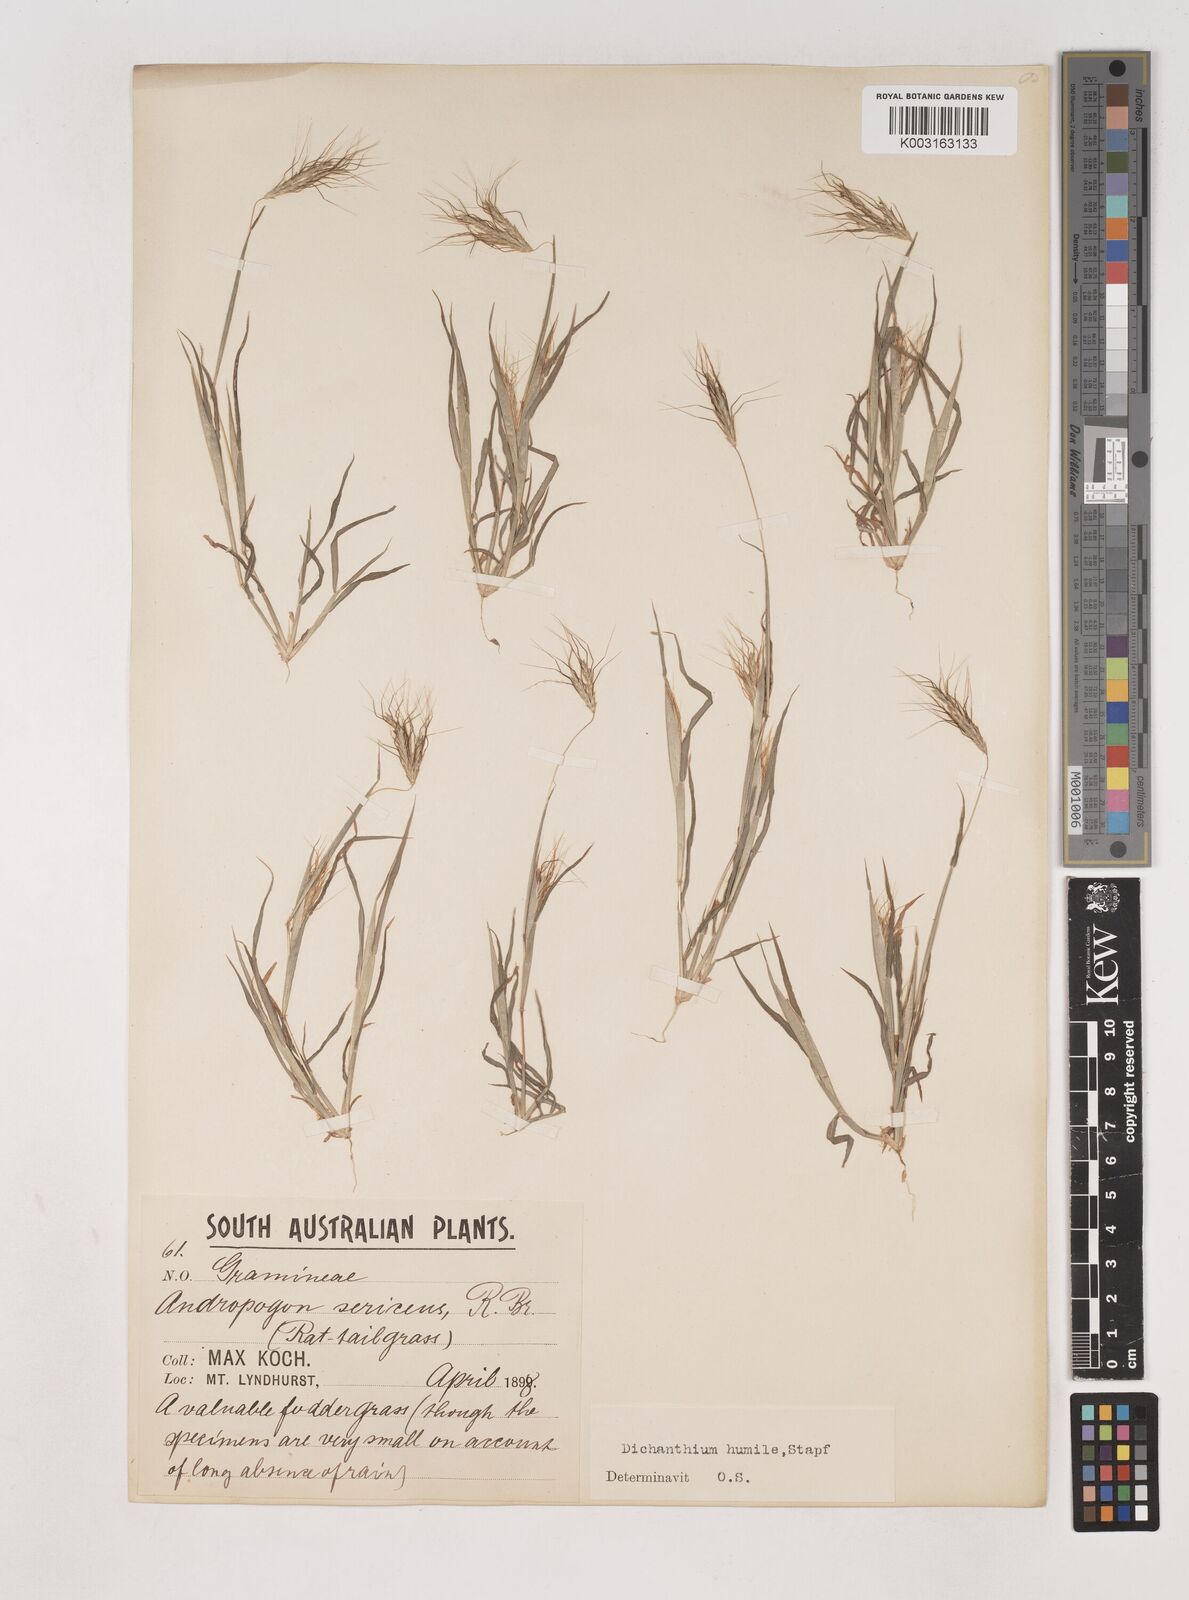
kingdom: Plantae
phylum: Tracheophyta
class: Liliopsida
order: Poales
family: Poaceae
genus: Dichanthium
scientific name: Dichanthium sericeum
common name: Silky bluestem
